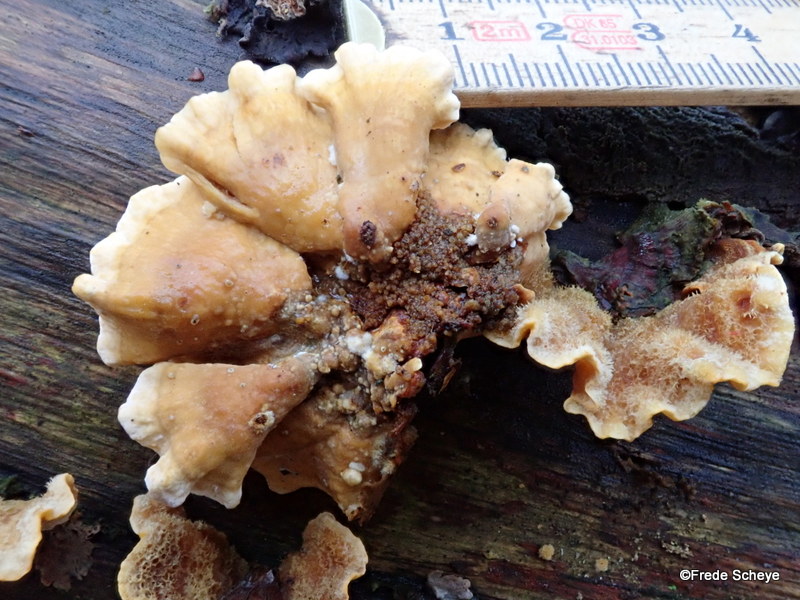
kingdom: Fungi
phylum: Basidiomycota
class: Agaricomycetes
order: Russulales
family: Stereaceae
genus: Stereum
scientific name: Stereum hirsutum
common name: håret lædersvamp
